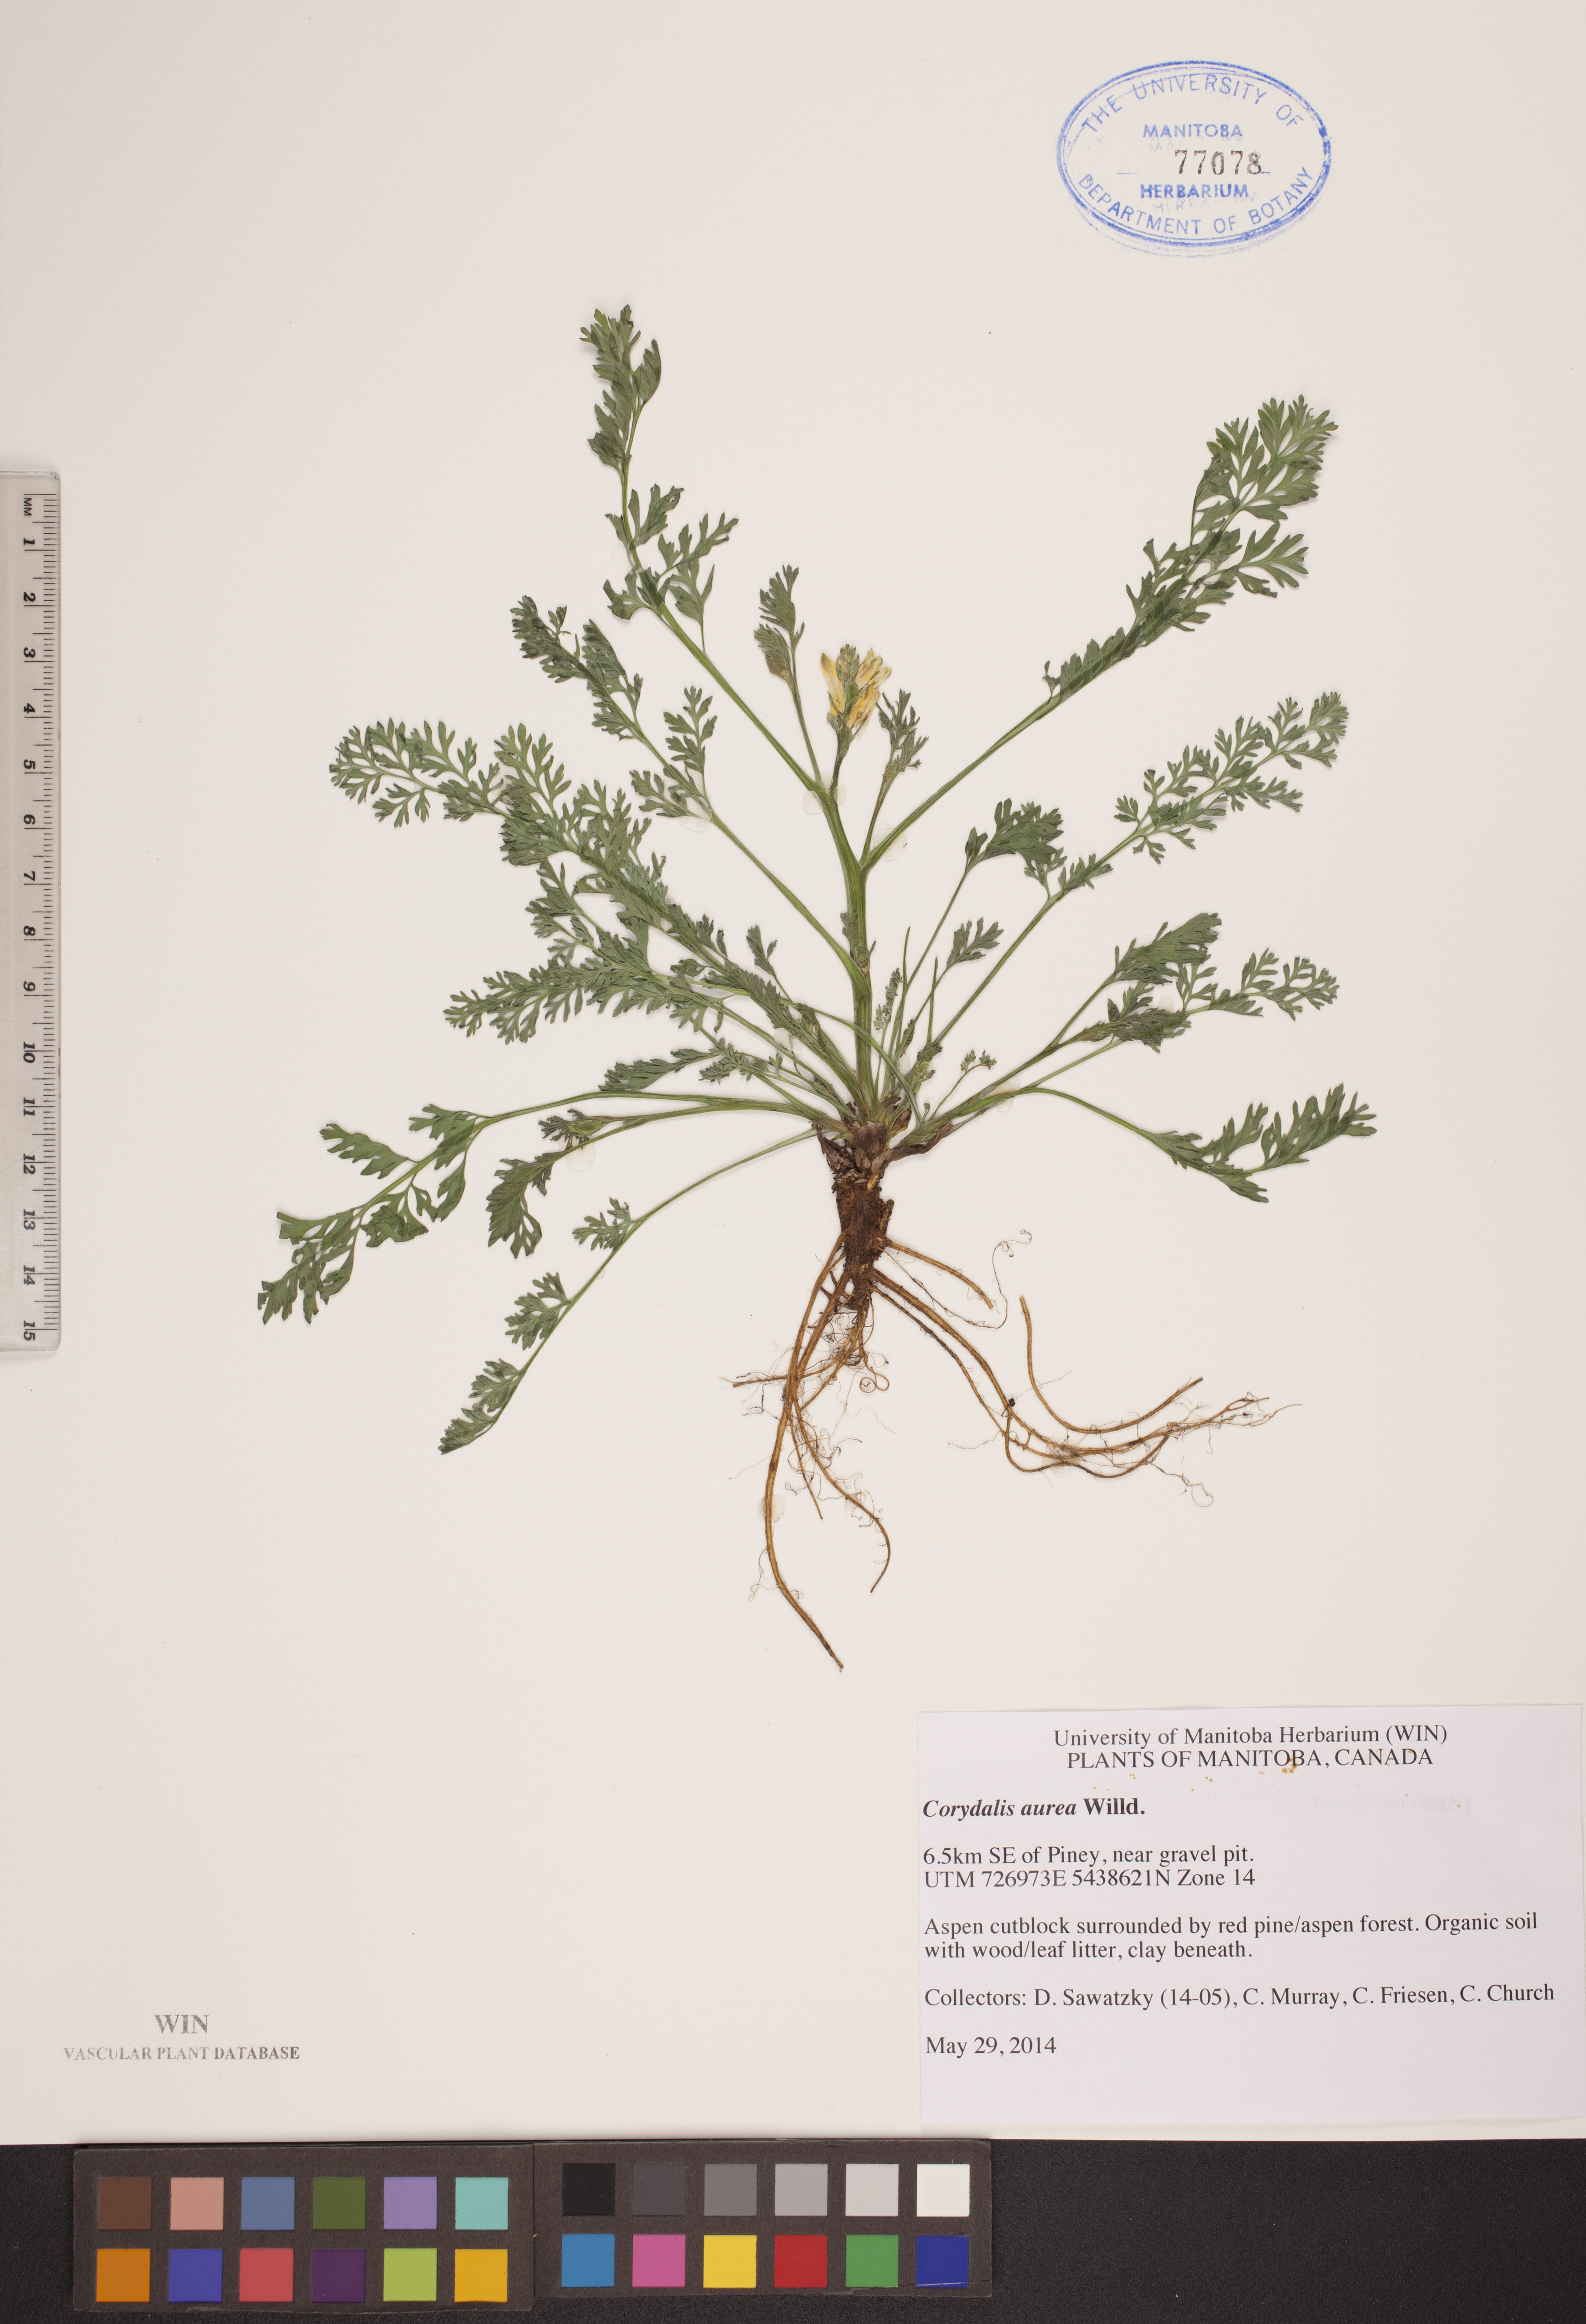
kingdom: Plantae
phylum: Tracheophyta
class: Magnoliopsida
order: Ranunculales
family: Papaveraceae
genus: Corydalis
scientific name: Corydalis aurea
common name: Golden corydalis
